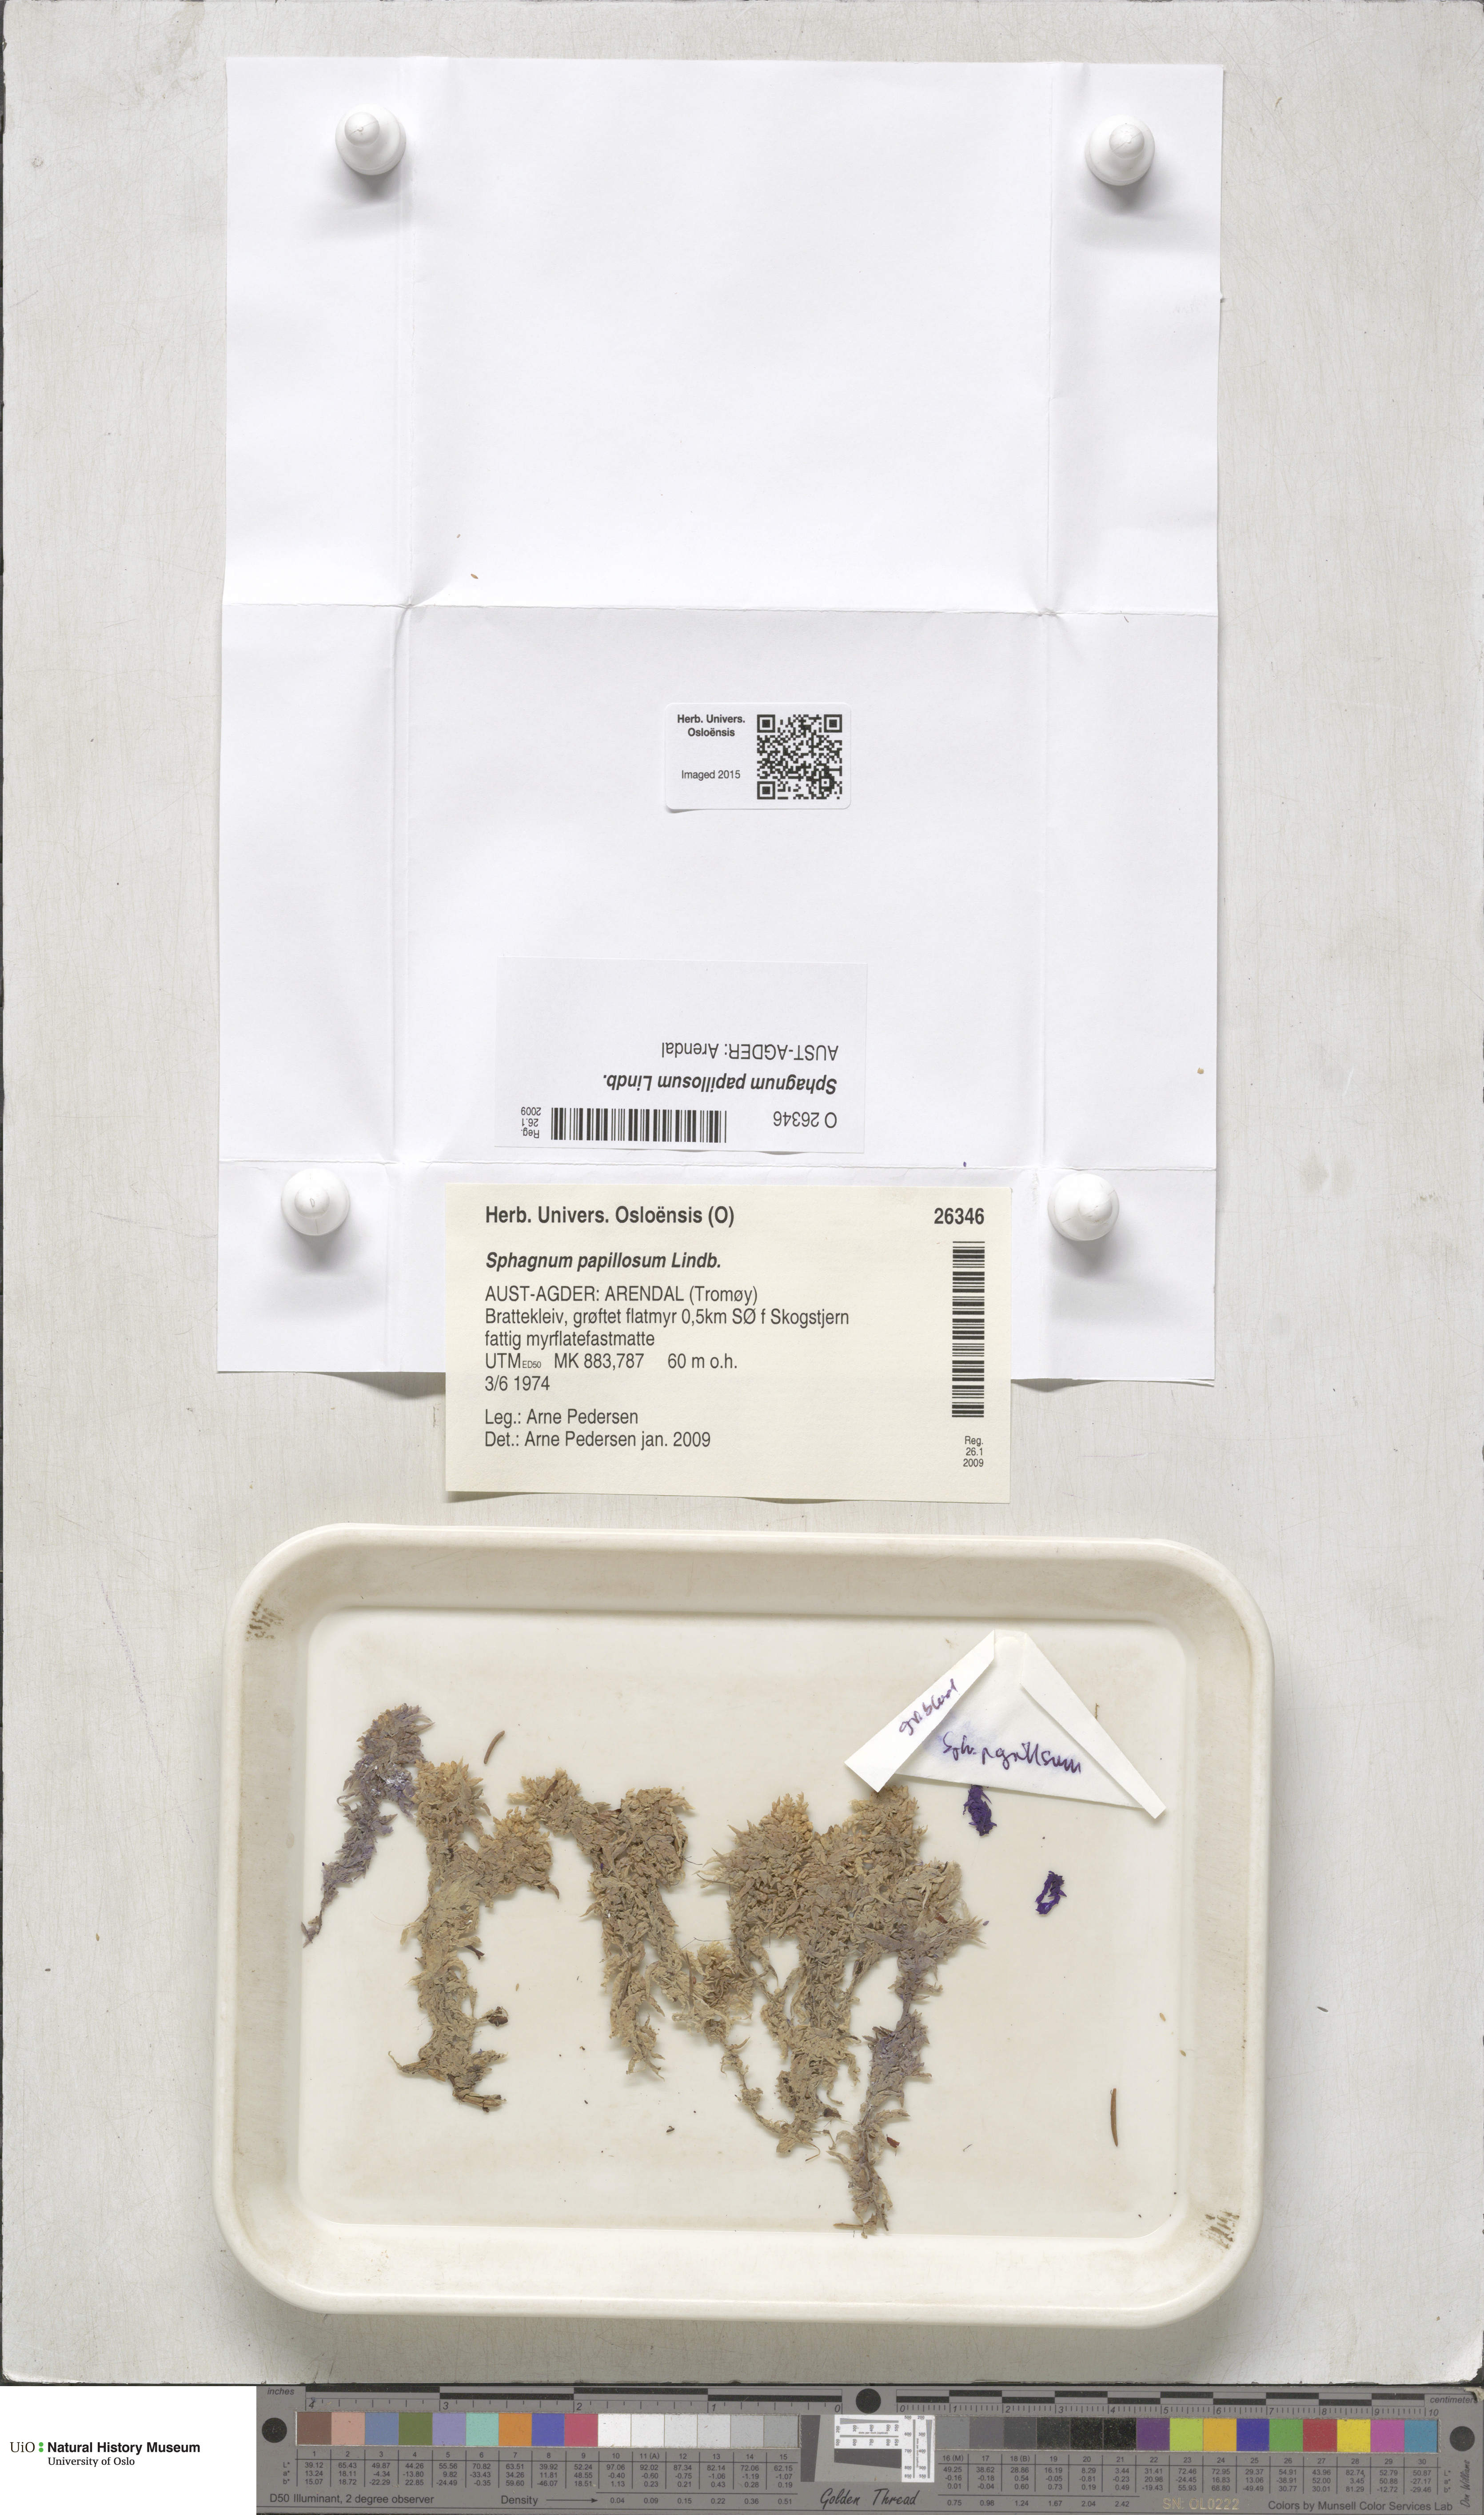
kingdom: Plantae
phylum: Bryophyta
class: Sphagnopsida
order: Sphagnales
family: Sphagnaceae
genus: Sphagnum
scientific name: Sphagnum papillosum
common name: Papillose peat moss
